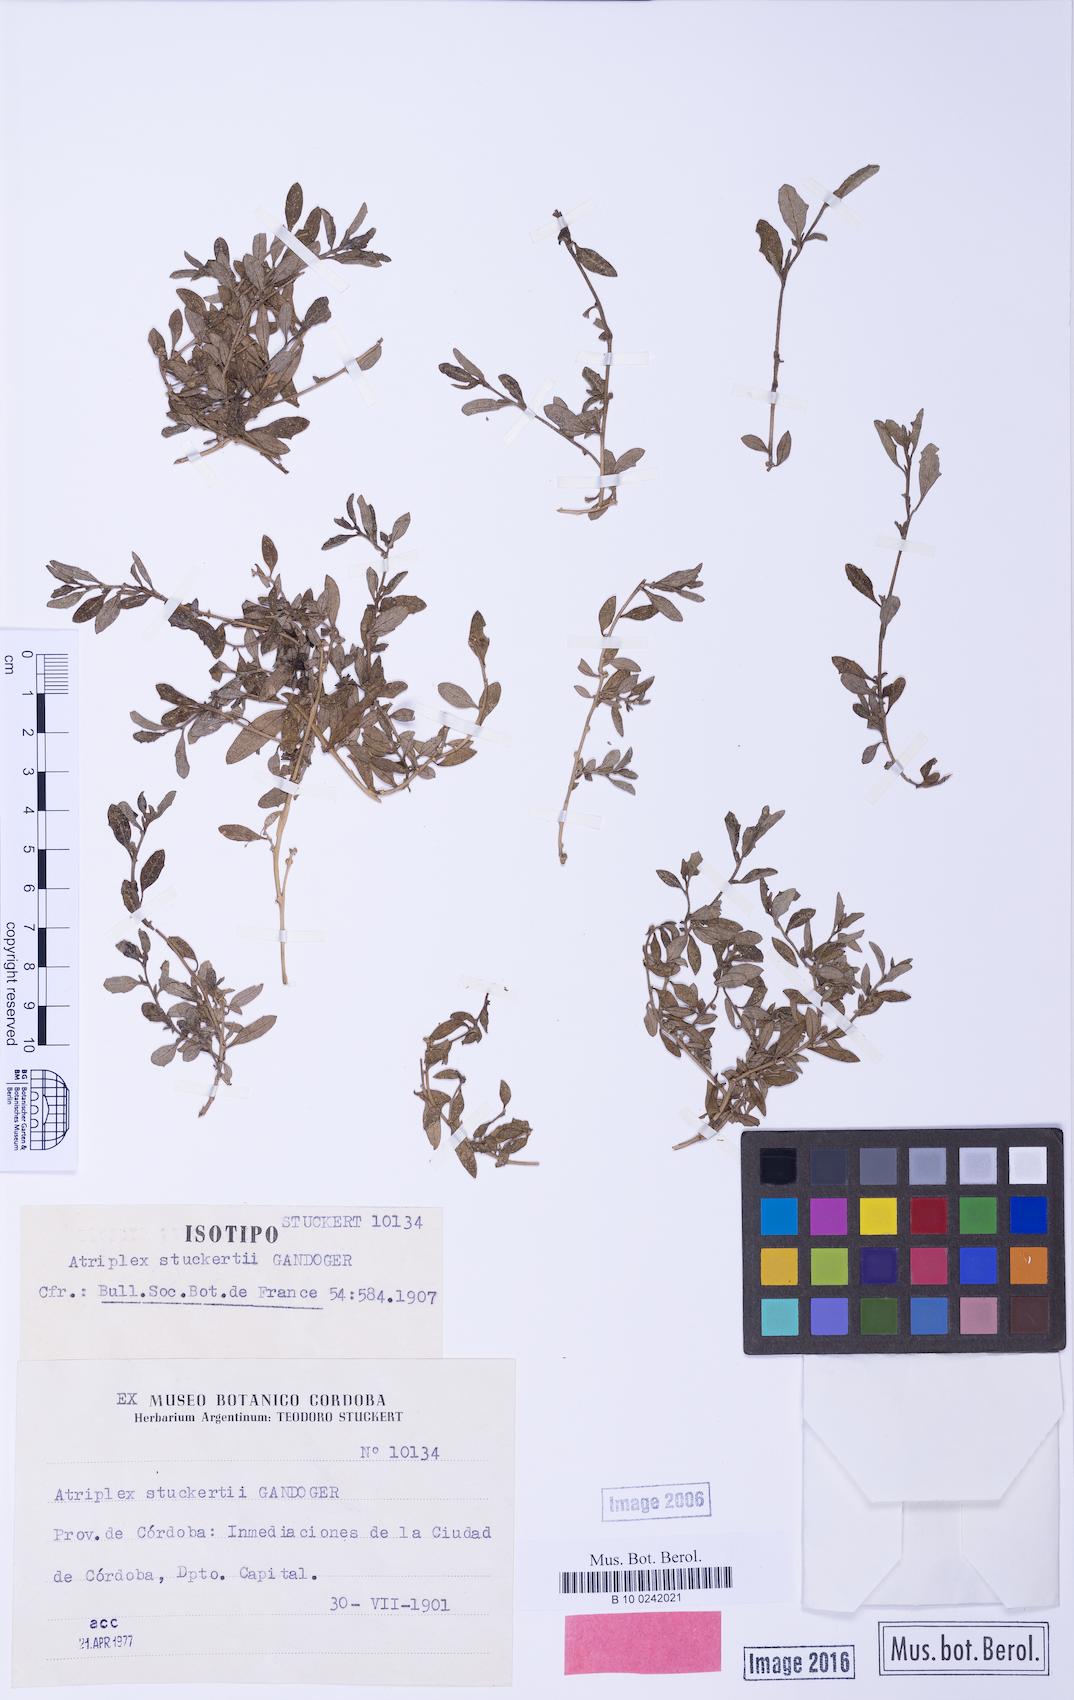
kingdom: Plantae
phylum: Tracheophyta
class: Magnoliopsida
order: Caryophyllales
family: Amaranthaceae
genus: Atriplex
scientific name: Atriplex semibaccata
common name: Australian saltbush
